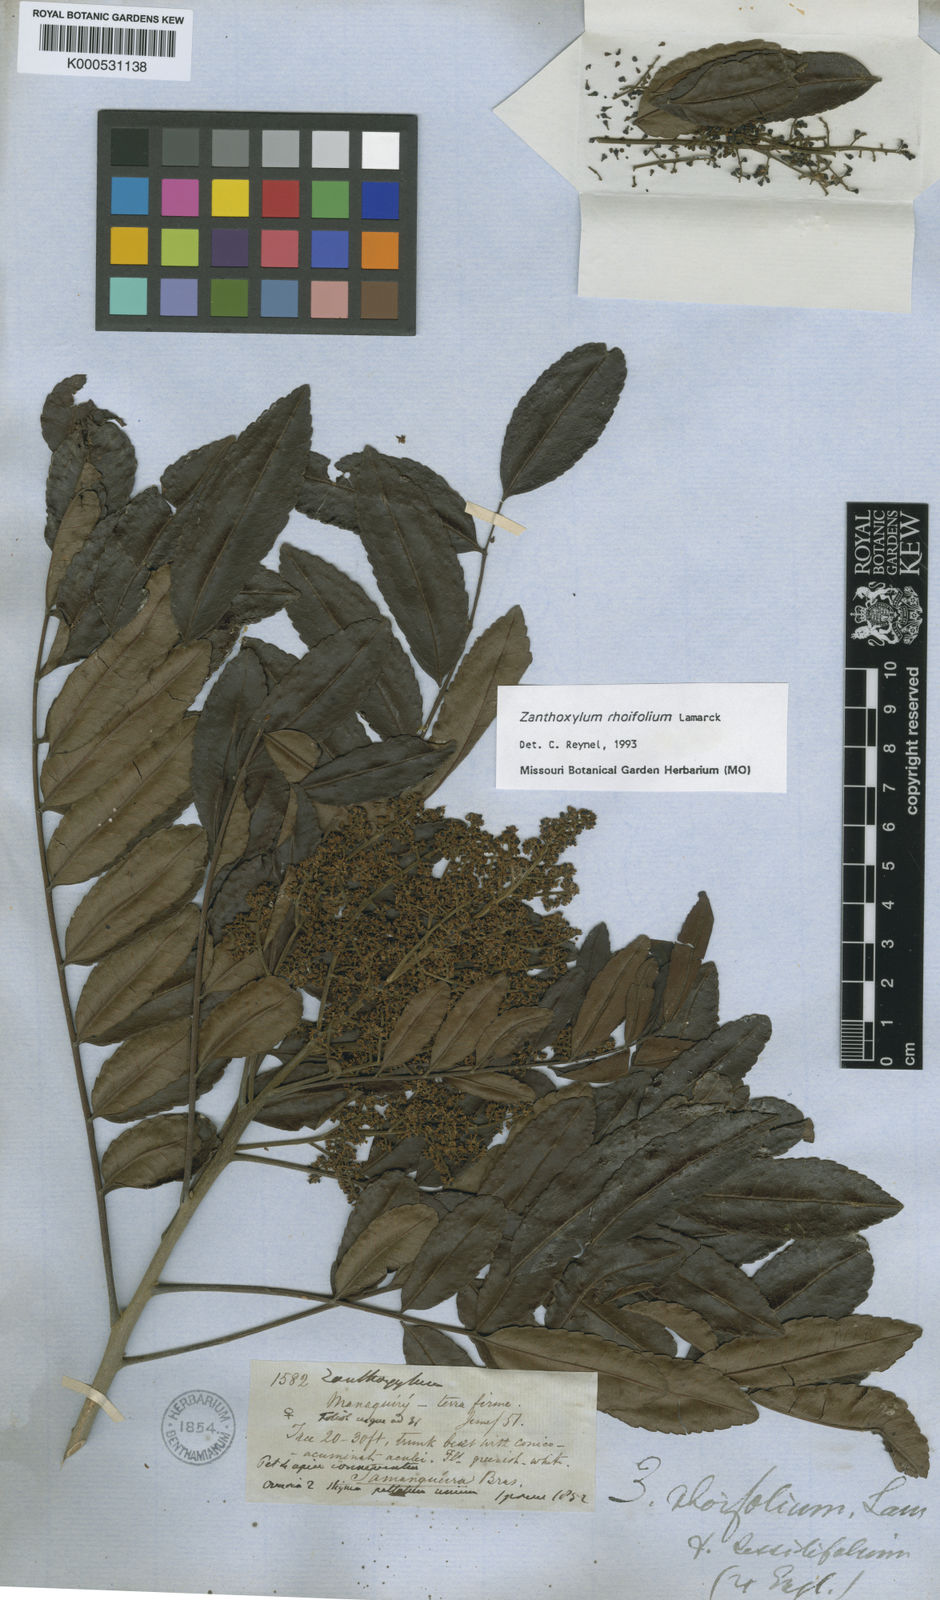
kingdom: Plantae
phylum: Tracheophyta
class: Magnoliopsida
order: Sapindales
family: Rutaceae
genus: Zanthoxylum
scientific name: Zanthoxylum rhoifolium
